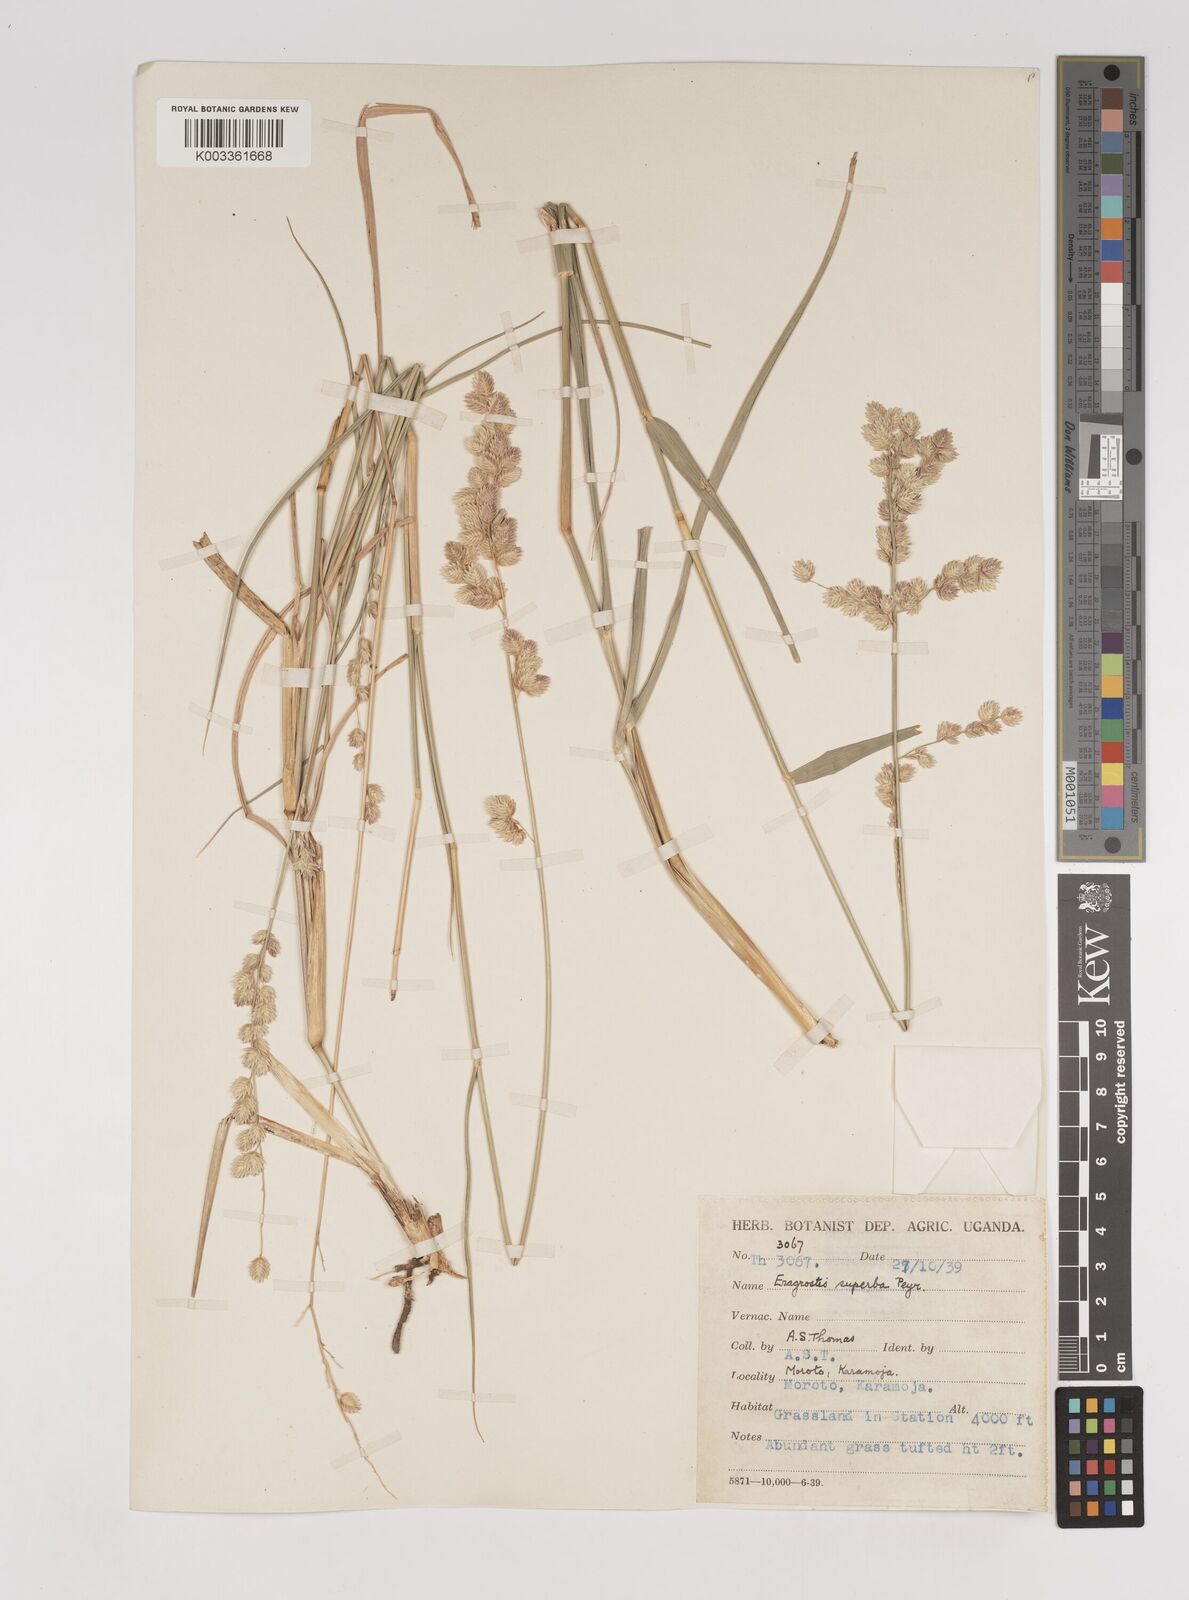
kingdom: Plantae
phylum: Tracheophyta
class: Liliopsida
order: Poales
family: Poaceae
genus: Eragrostis
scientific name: Eragrostis superba
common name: Wilman lovegrass
